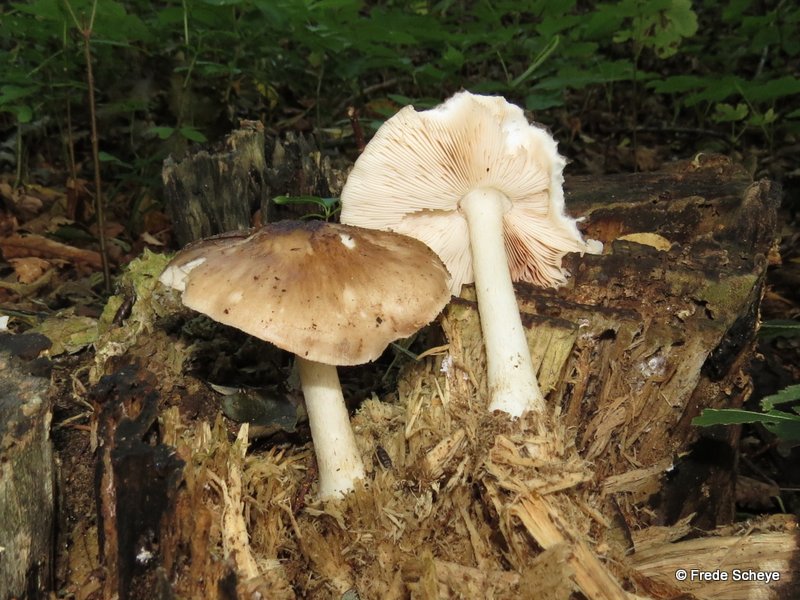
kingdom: Fungi
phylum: Basidiomycota
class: Agaricomycetes
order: Agaricales
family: Pluteaceae
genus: Pluteus
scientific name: Pluteus cervinus
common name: sodfarvet skærmhat
